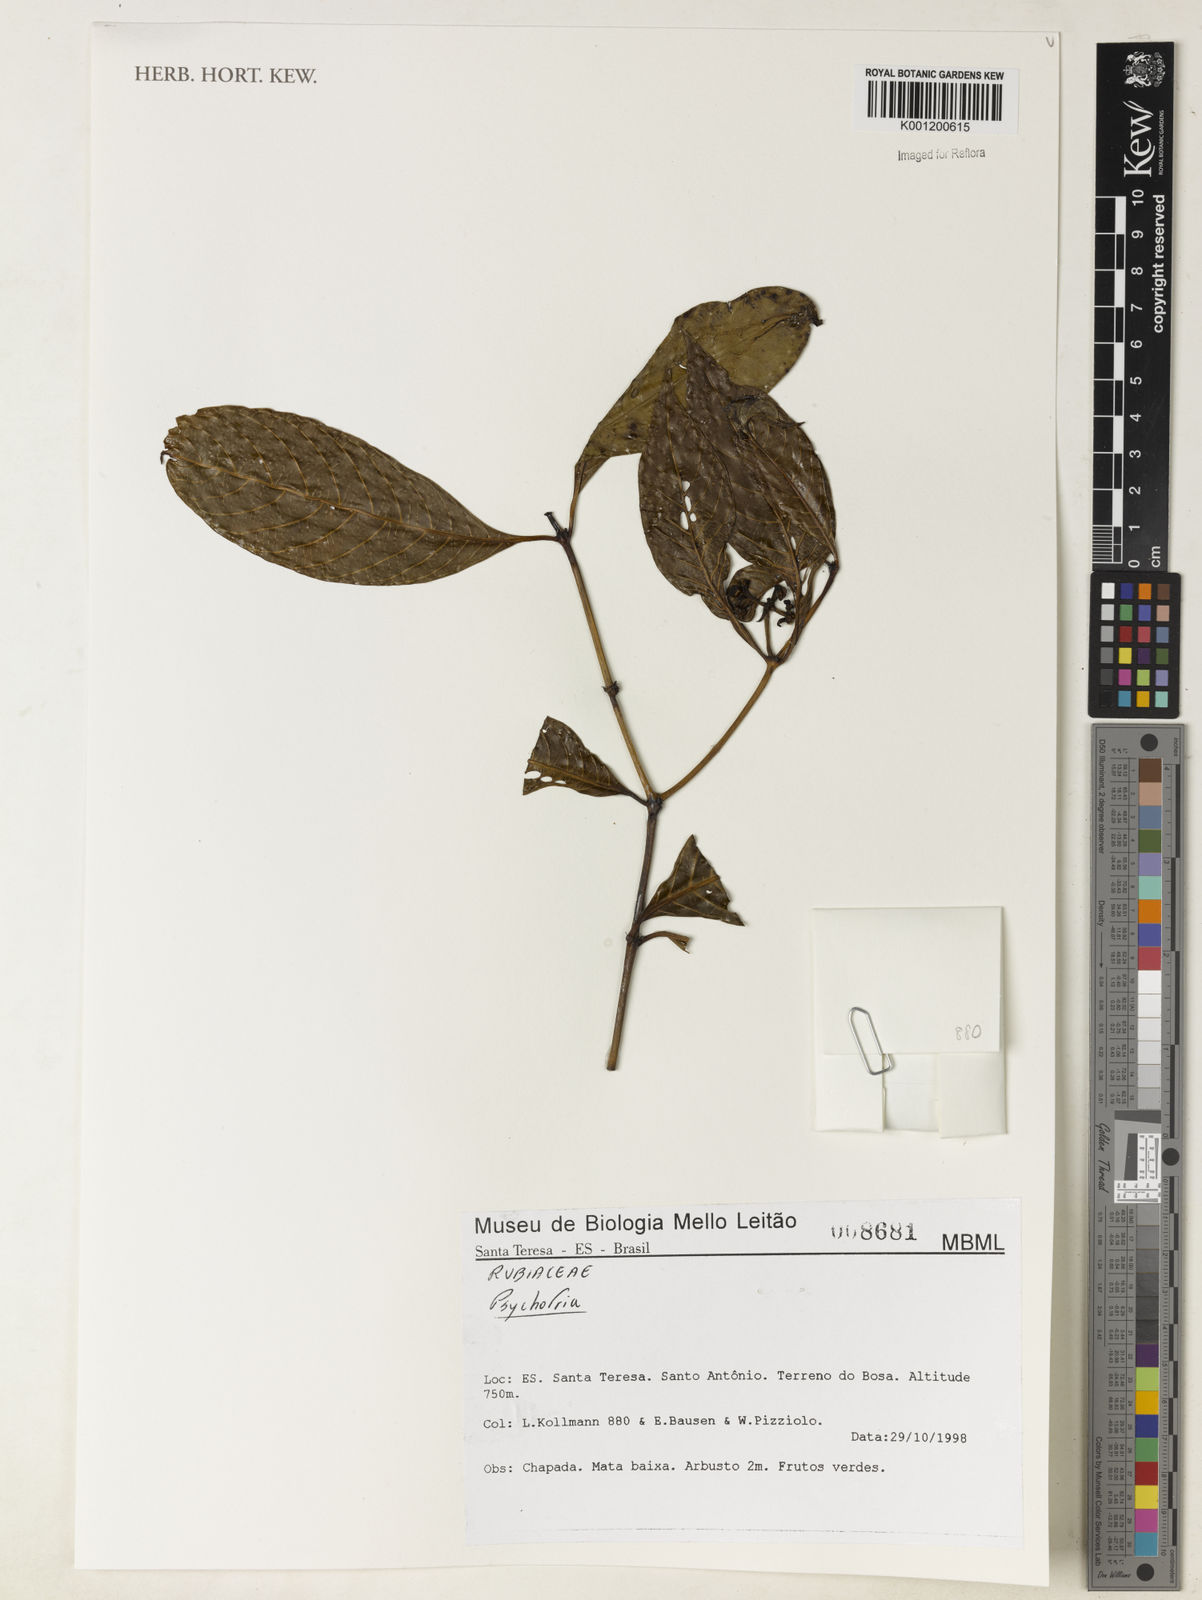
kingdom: Plantae
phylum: Tracheophyta
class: Magnoliopsida
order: Gentianales
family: Rubiaceae
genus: Psychotria
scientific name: Psychotria
